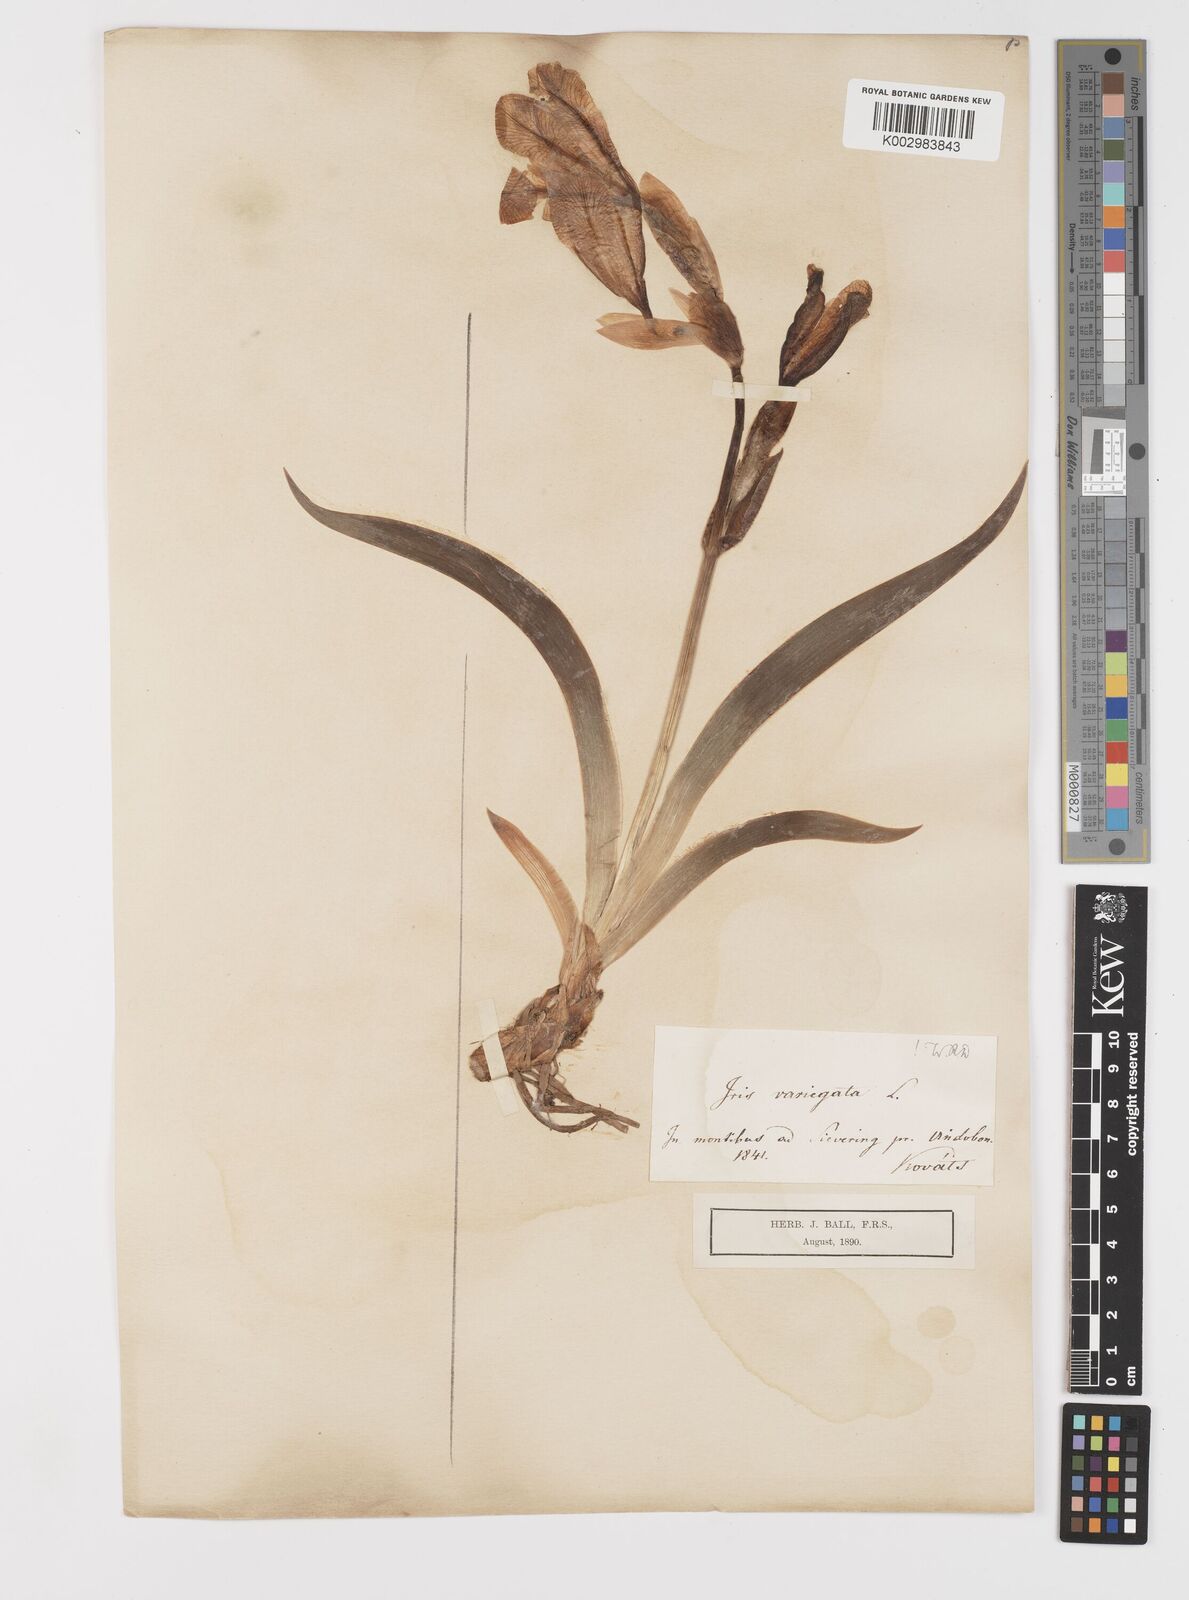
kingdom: Plantae
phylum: Tracheophyta
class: Liliopsida
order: Asparagales
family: Iridaceae
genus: Iris
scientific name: Iris variegata
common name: Hungarian iris
